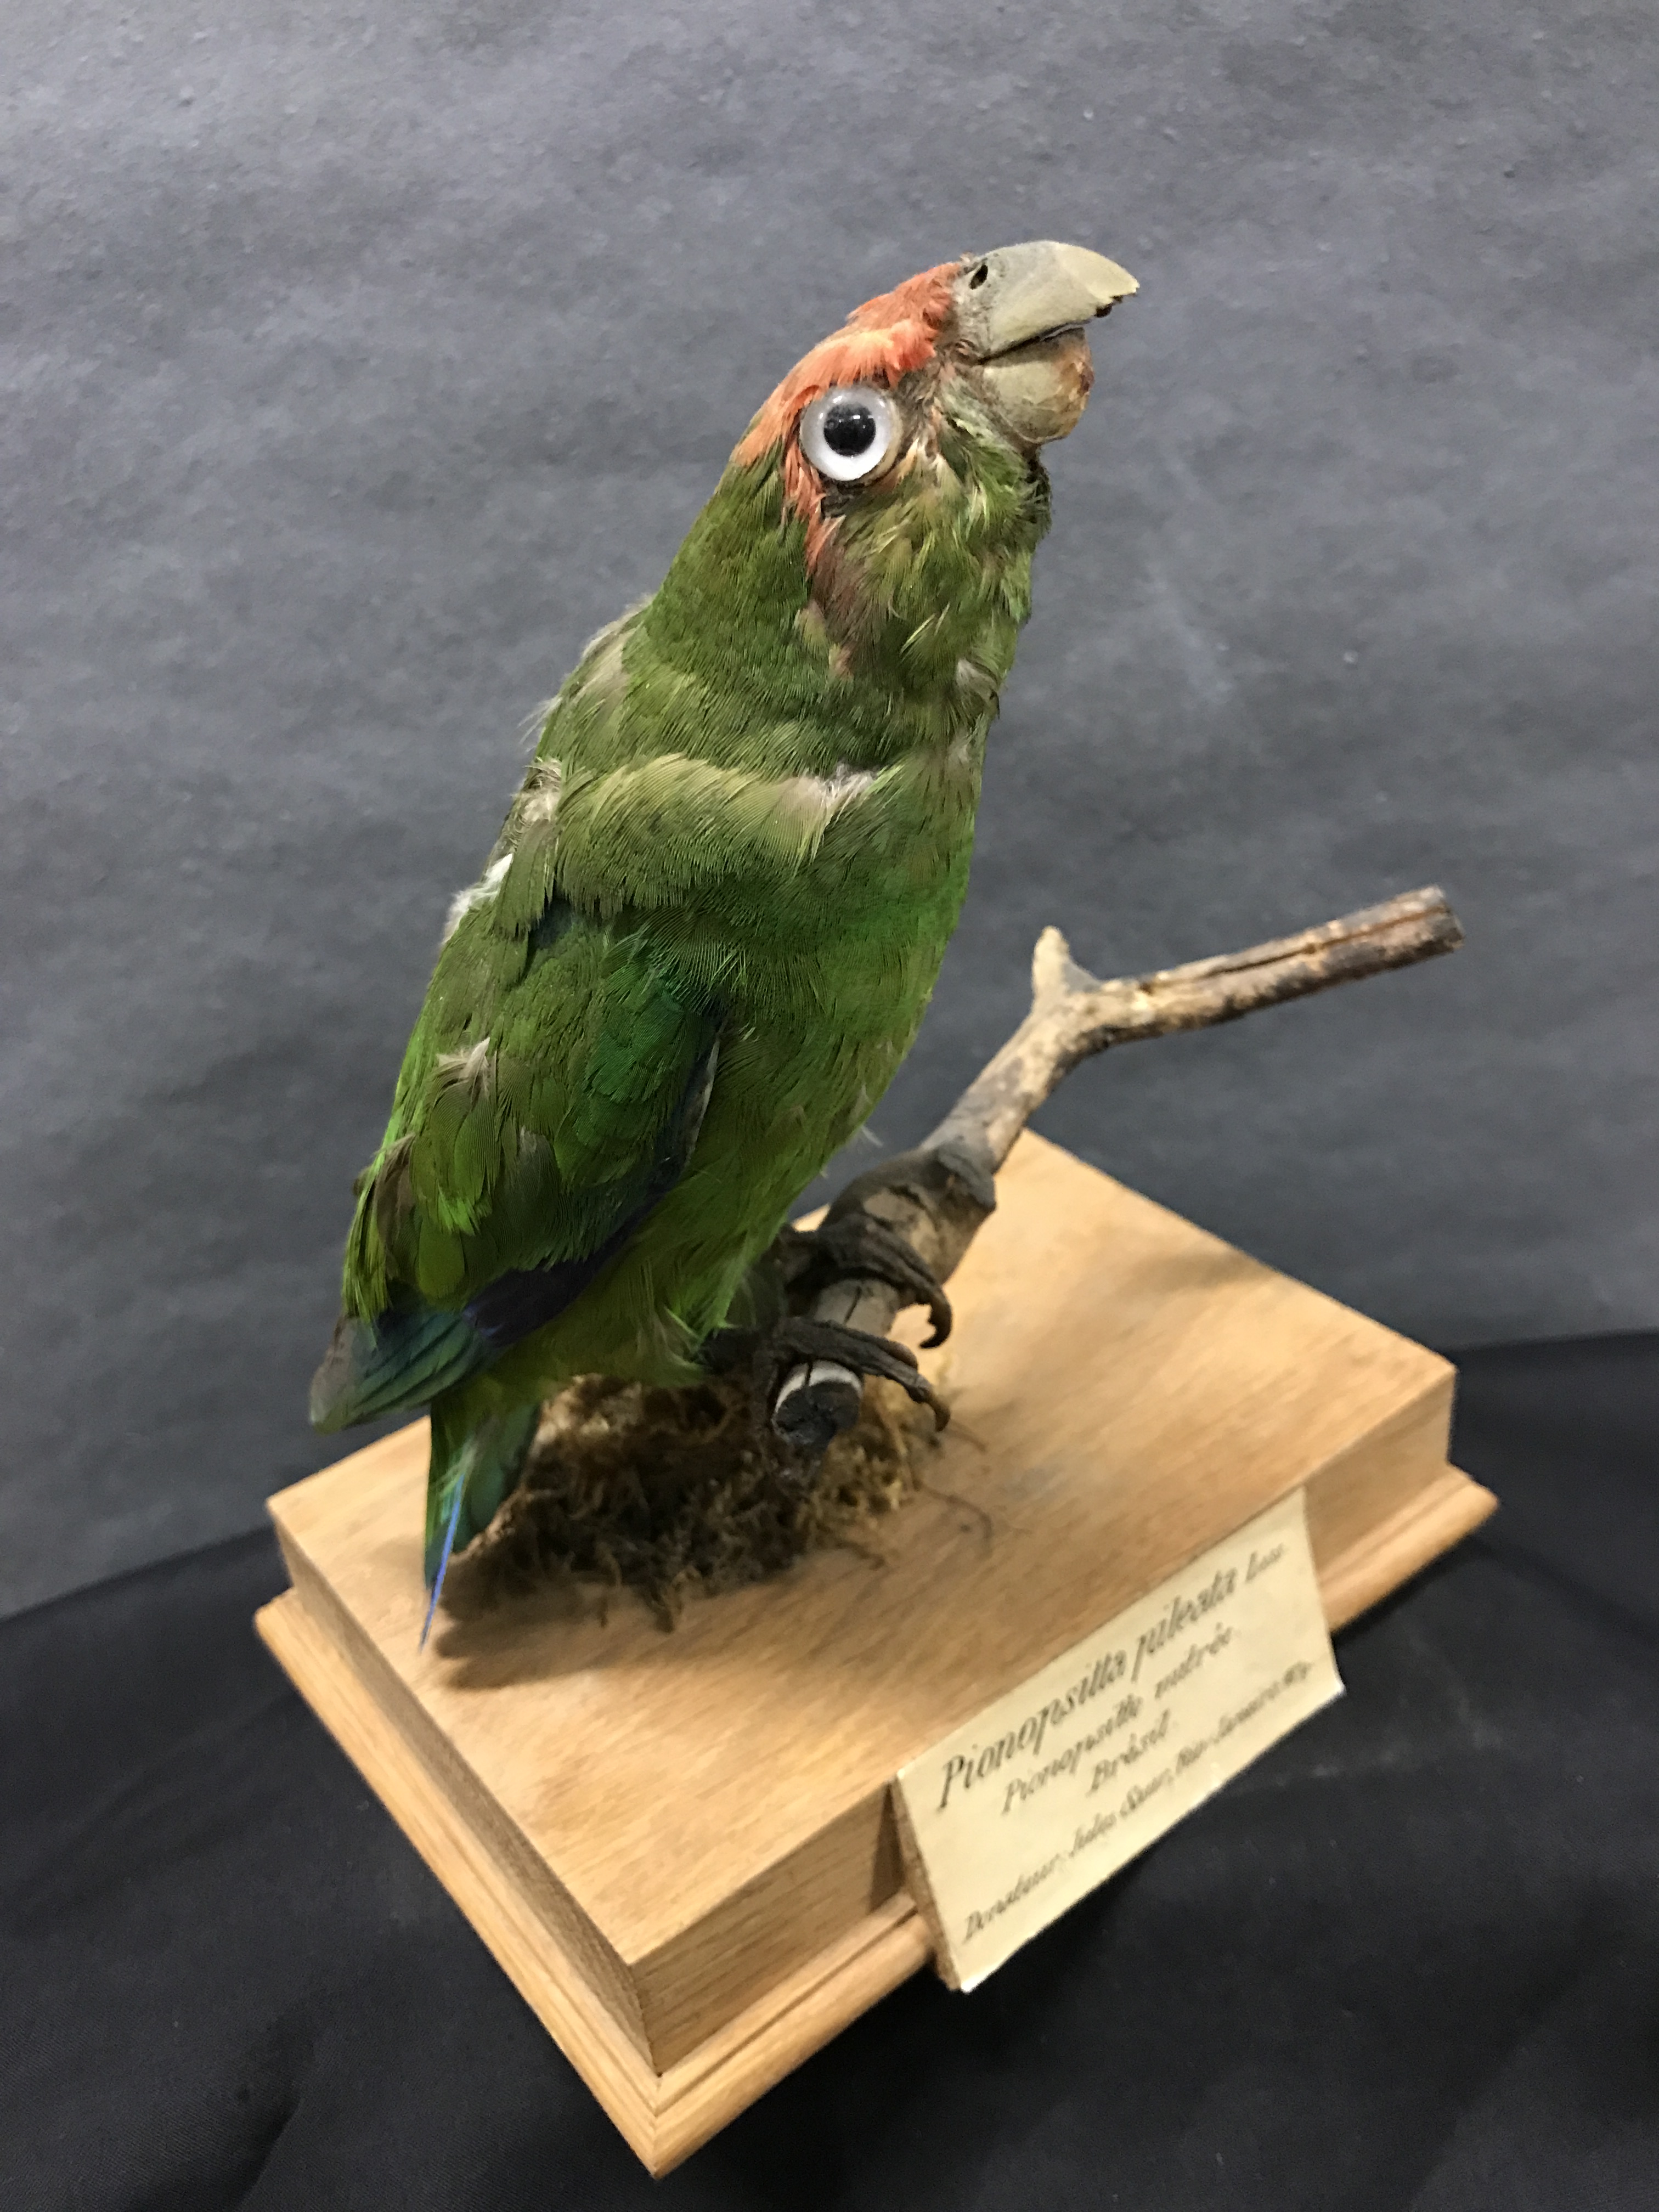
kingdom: Animalia
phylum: Chordata
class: Aves
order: Psittaciformes
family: Psittacidae
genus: Pionopsitta
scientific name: Pionopsitta pileata
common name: Pileated parrot
